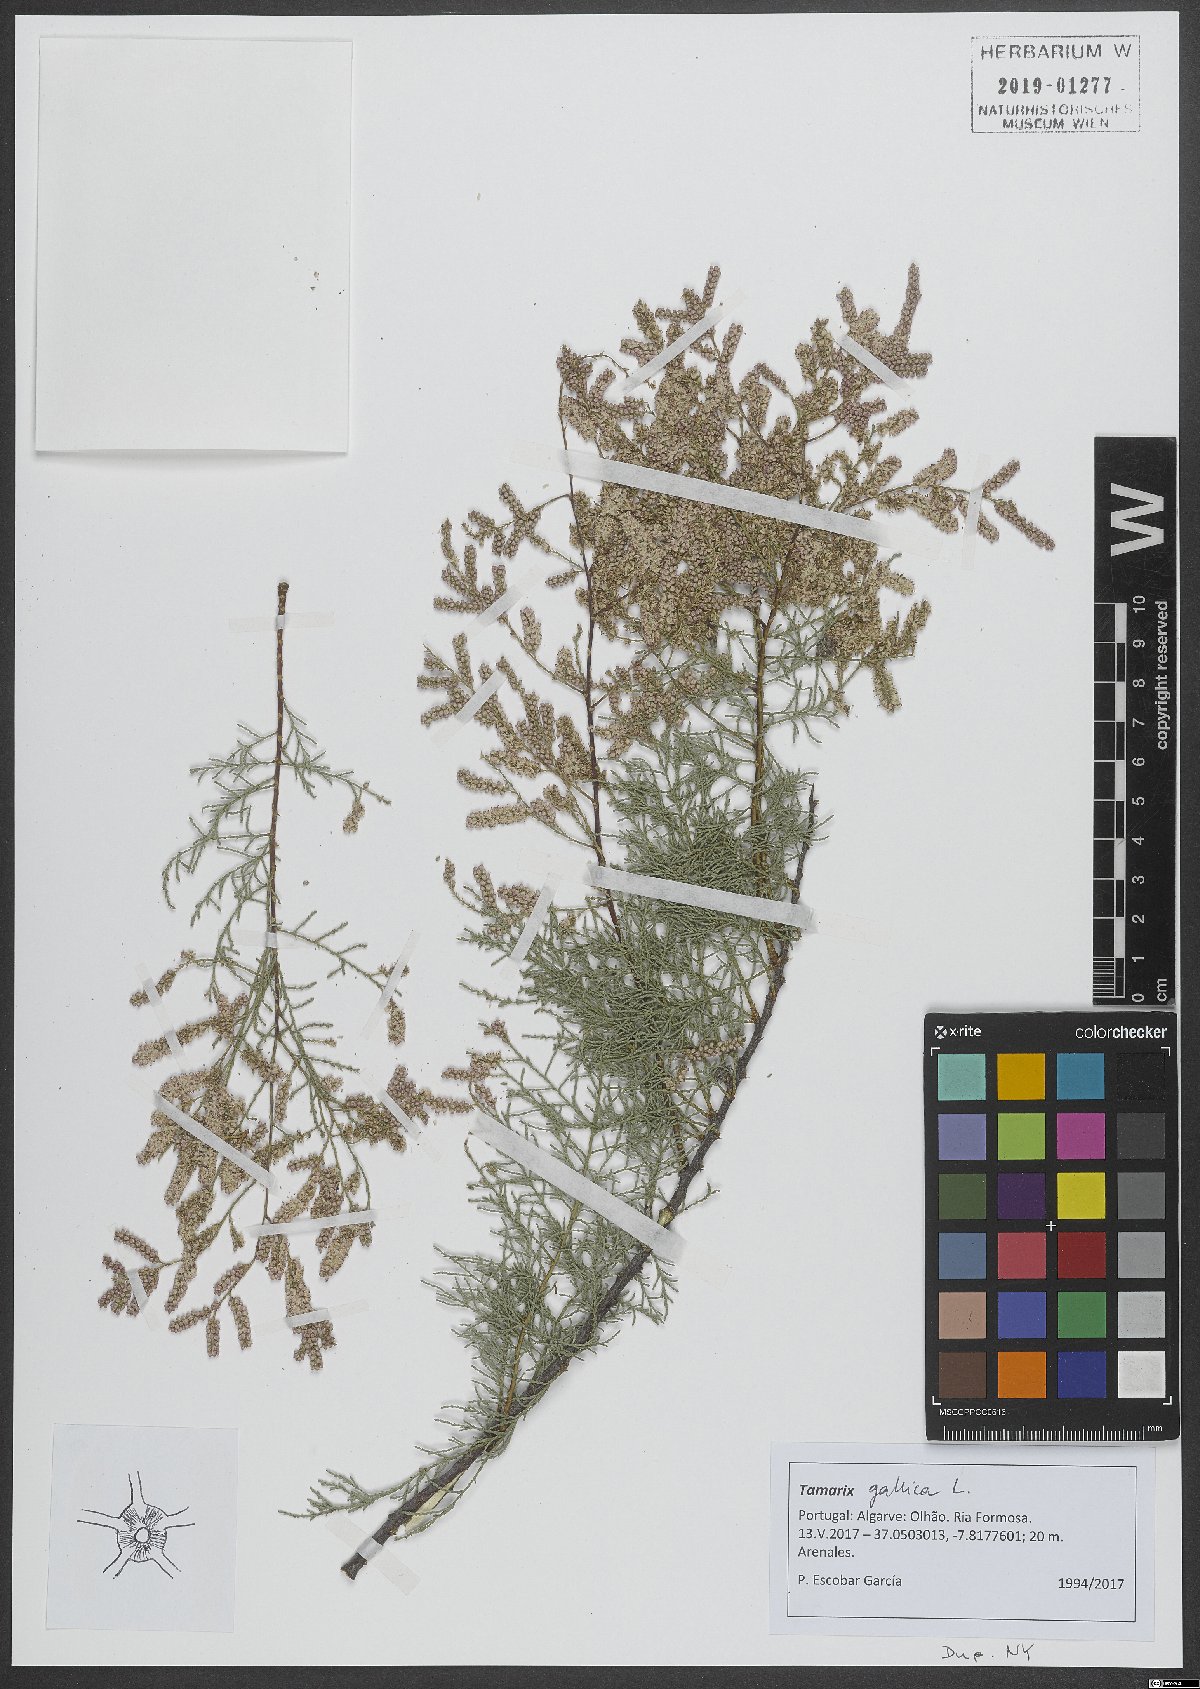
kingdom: Plantae
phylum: Tracheophyta
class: Magnoliopsida
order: Caryophyllales
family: Tamaricaceae
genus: Tamarix
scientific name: Tamarix gallica
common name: Tamarisk
